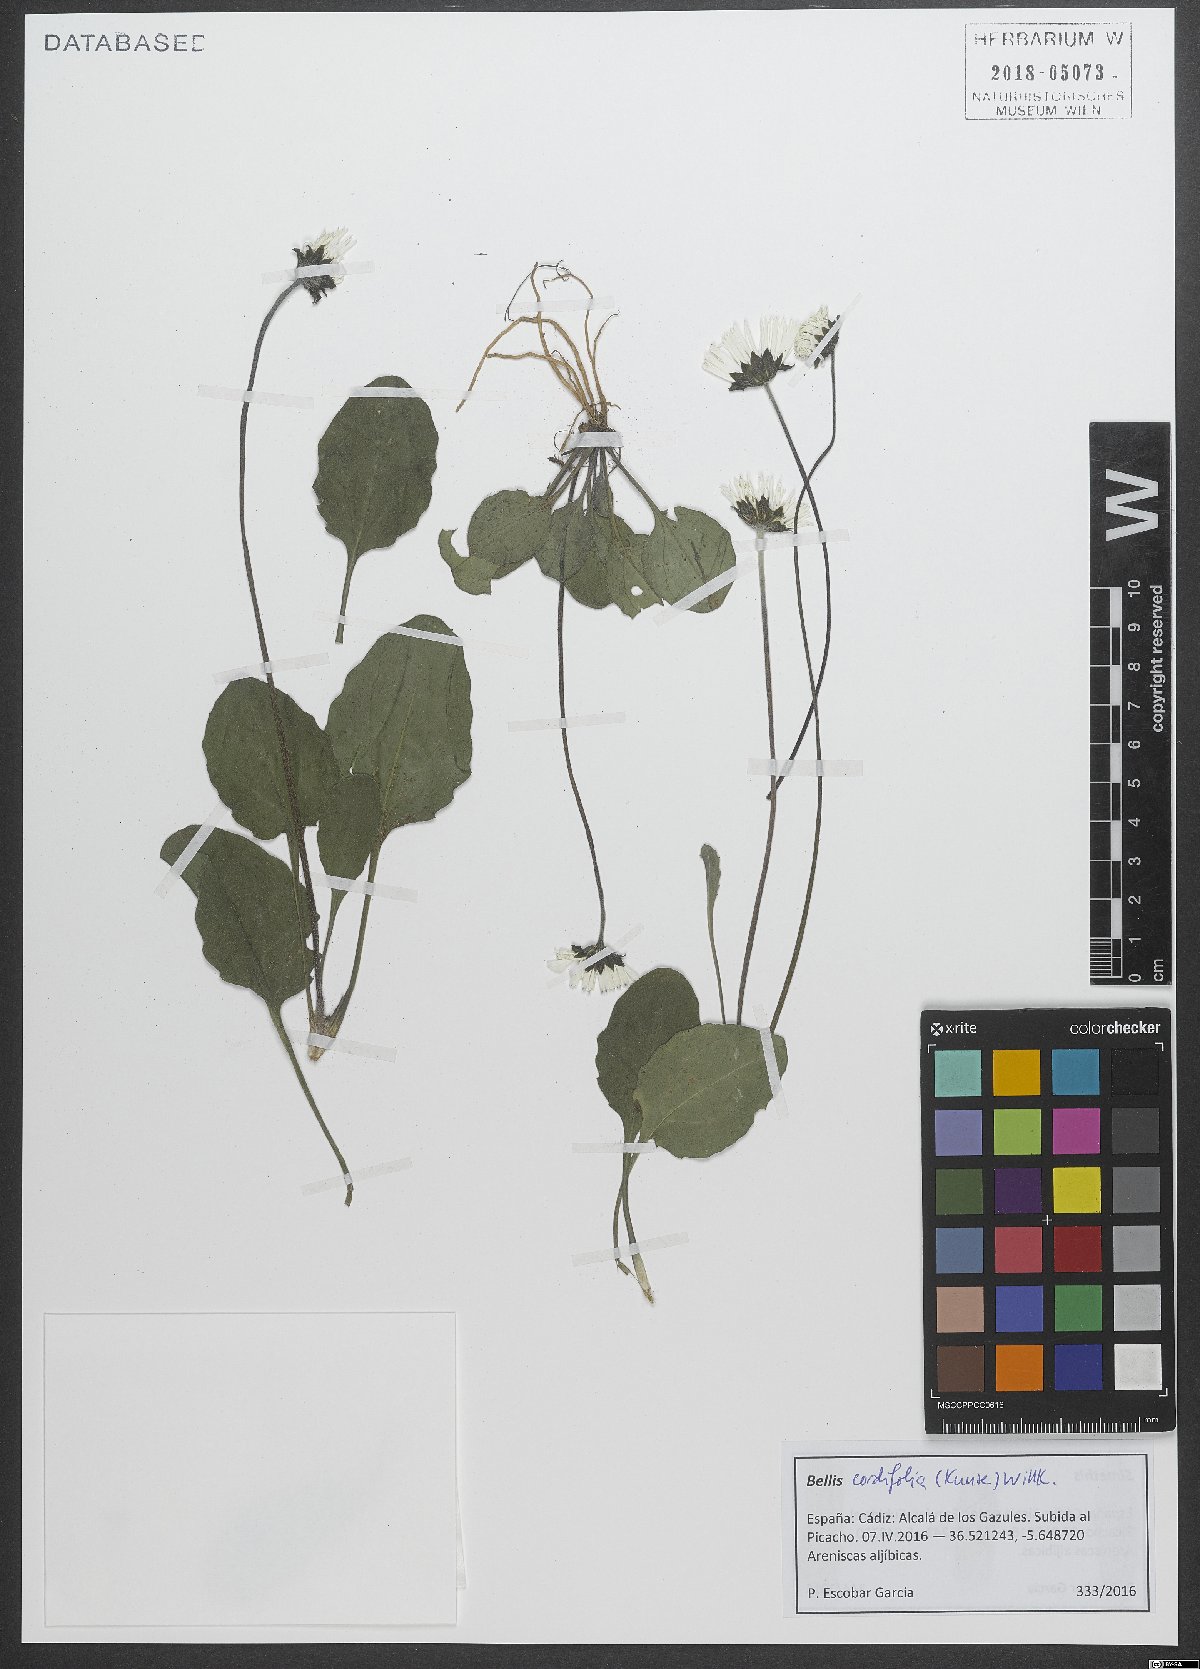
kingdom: Plantae
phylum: Tracheophyta
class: Magnoliopsida
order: Asterales
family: Asteraceae
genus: Bellis
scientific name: Bellis cordifolia
